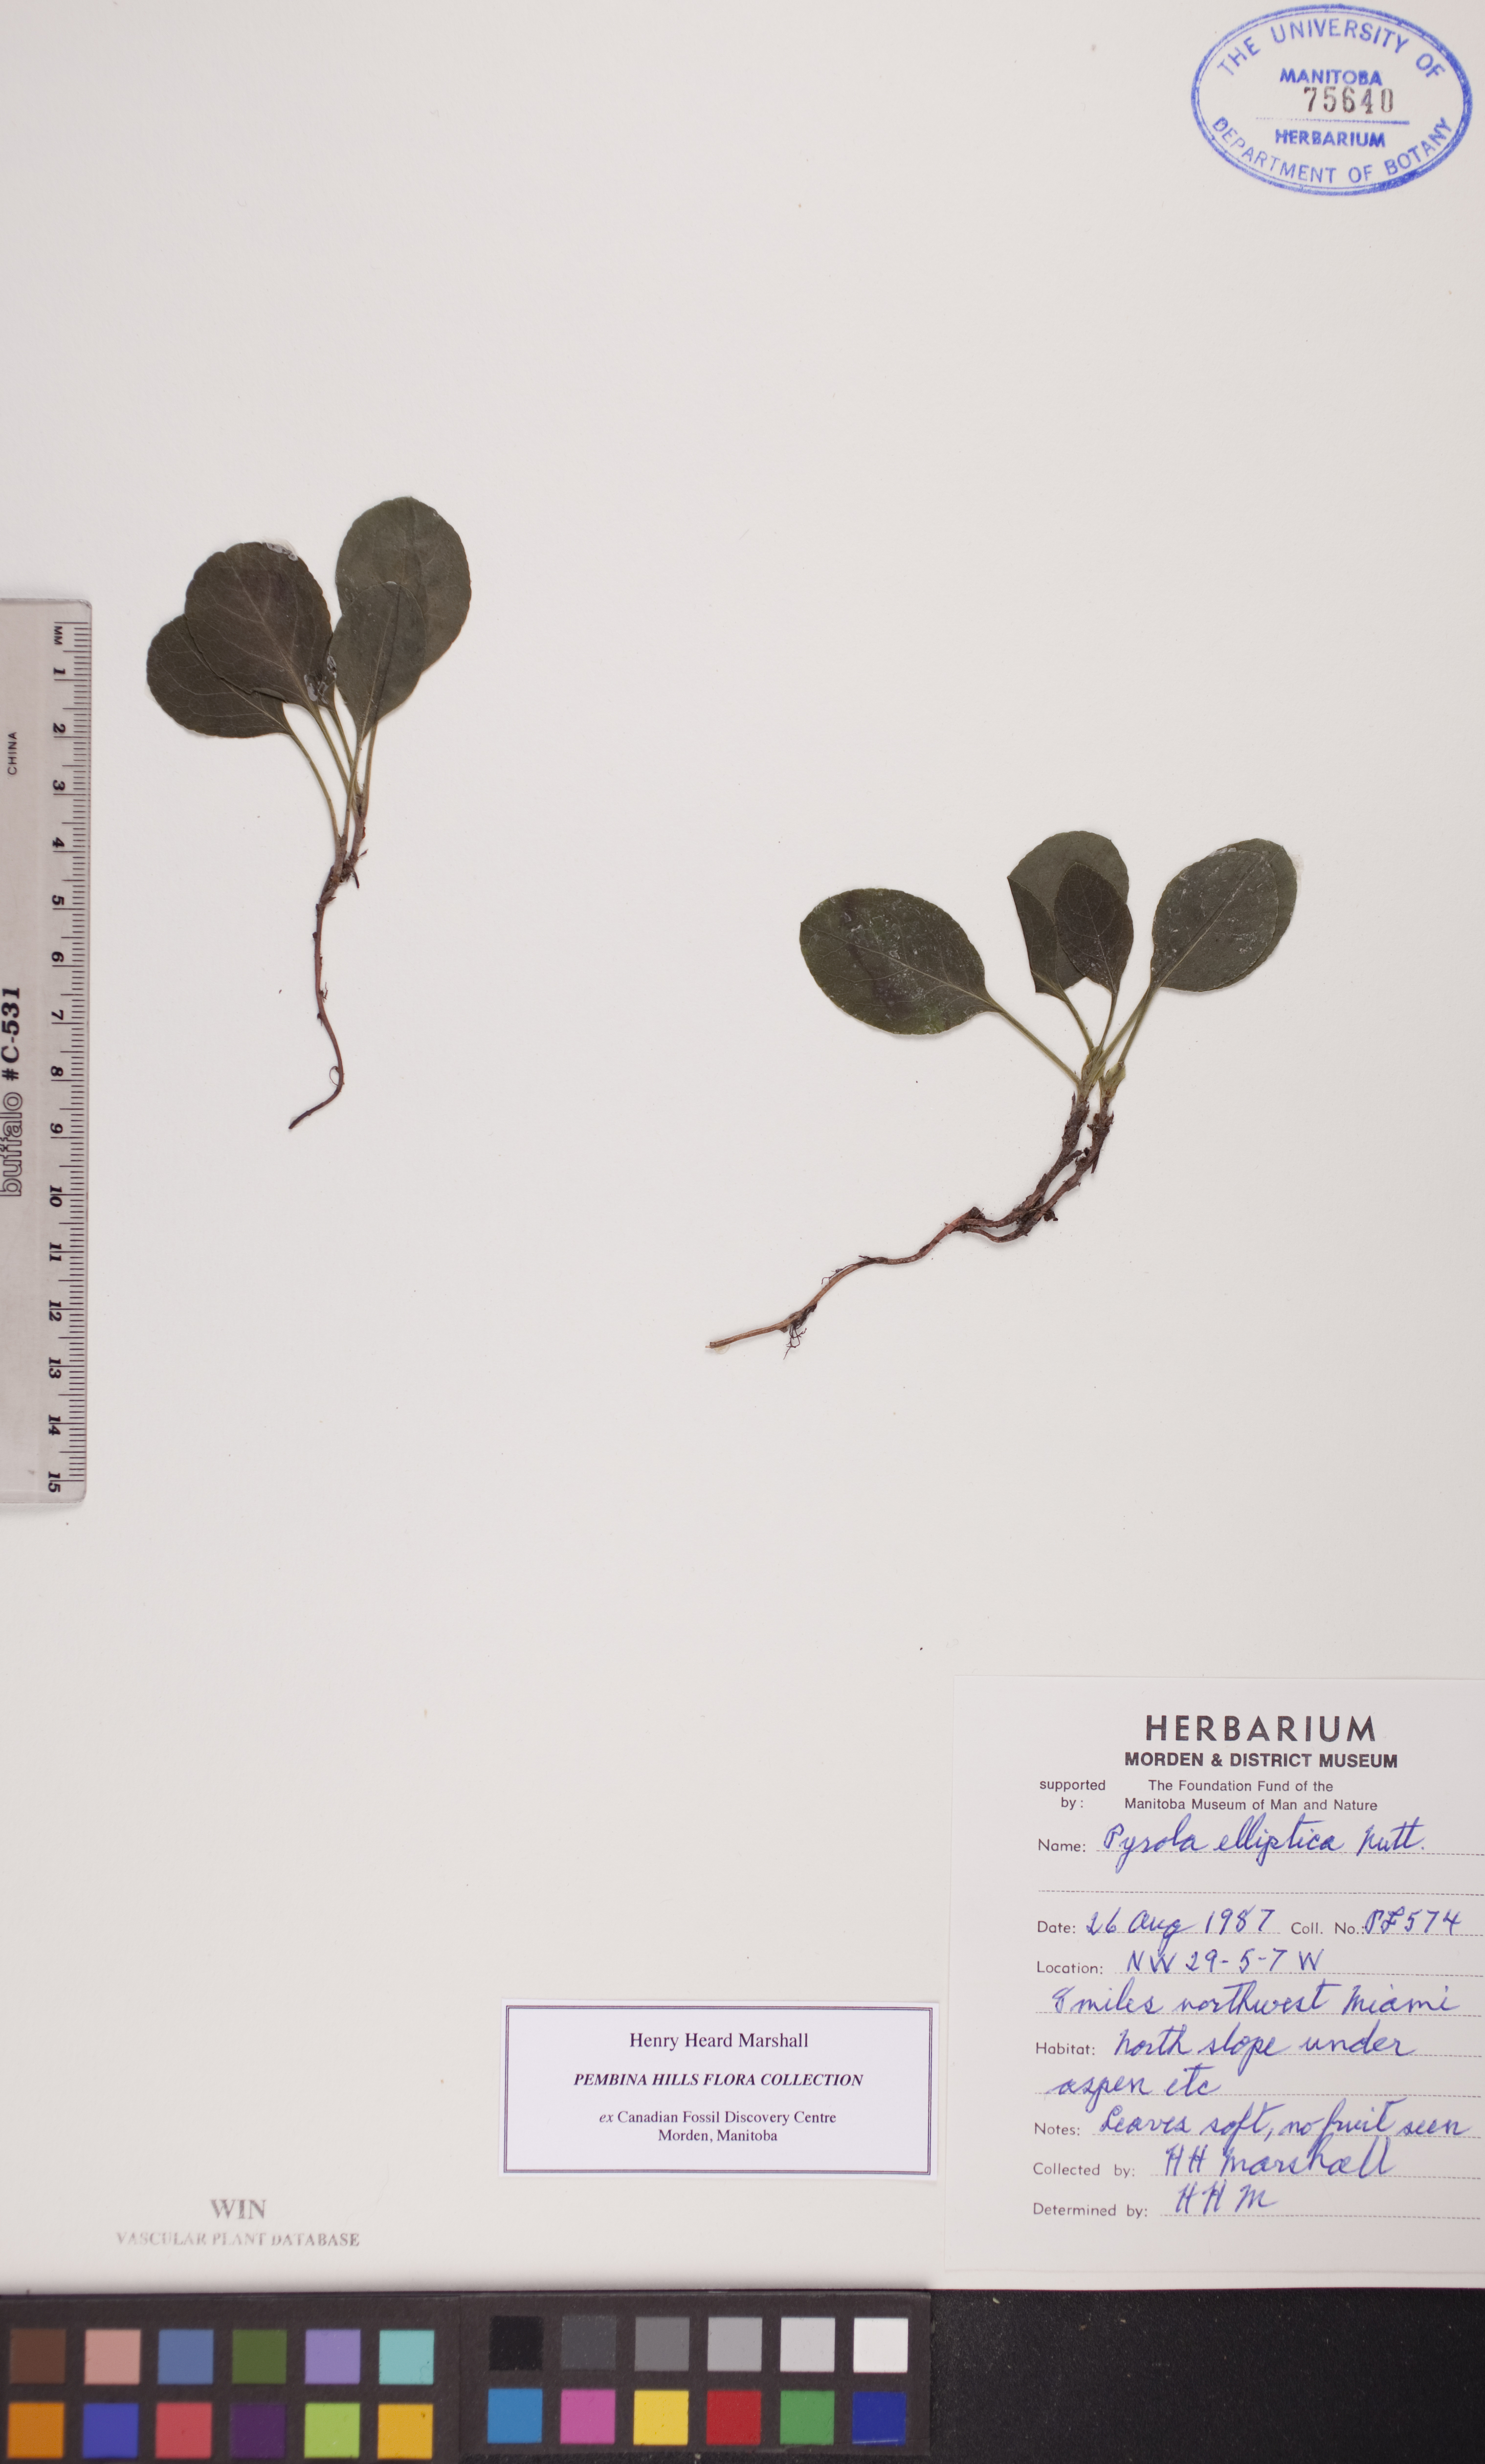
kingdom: Plantae
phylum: Tracheophyta
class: Magnoliopsida
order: Ericales
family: Ericaceae
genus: Pyrola
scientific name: Pyrola elliptica
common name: Shinleaf
